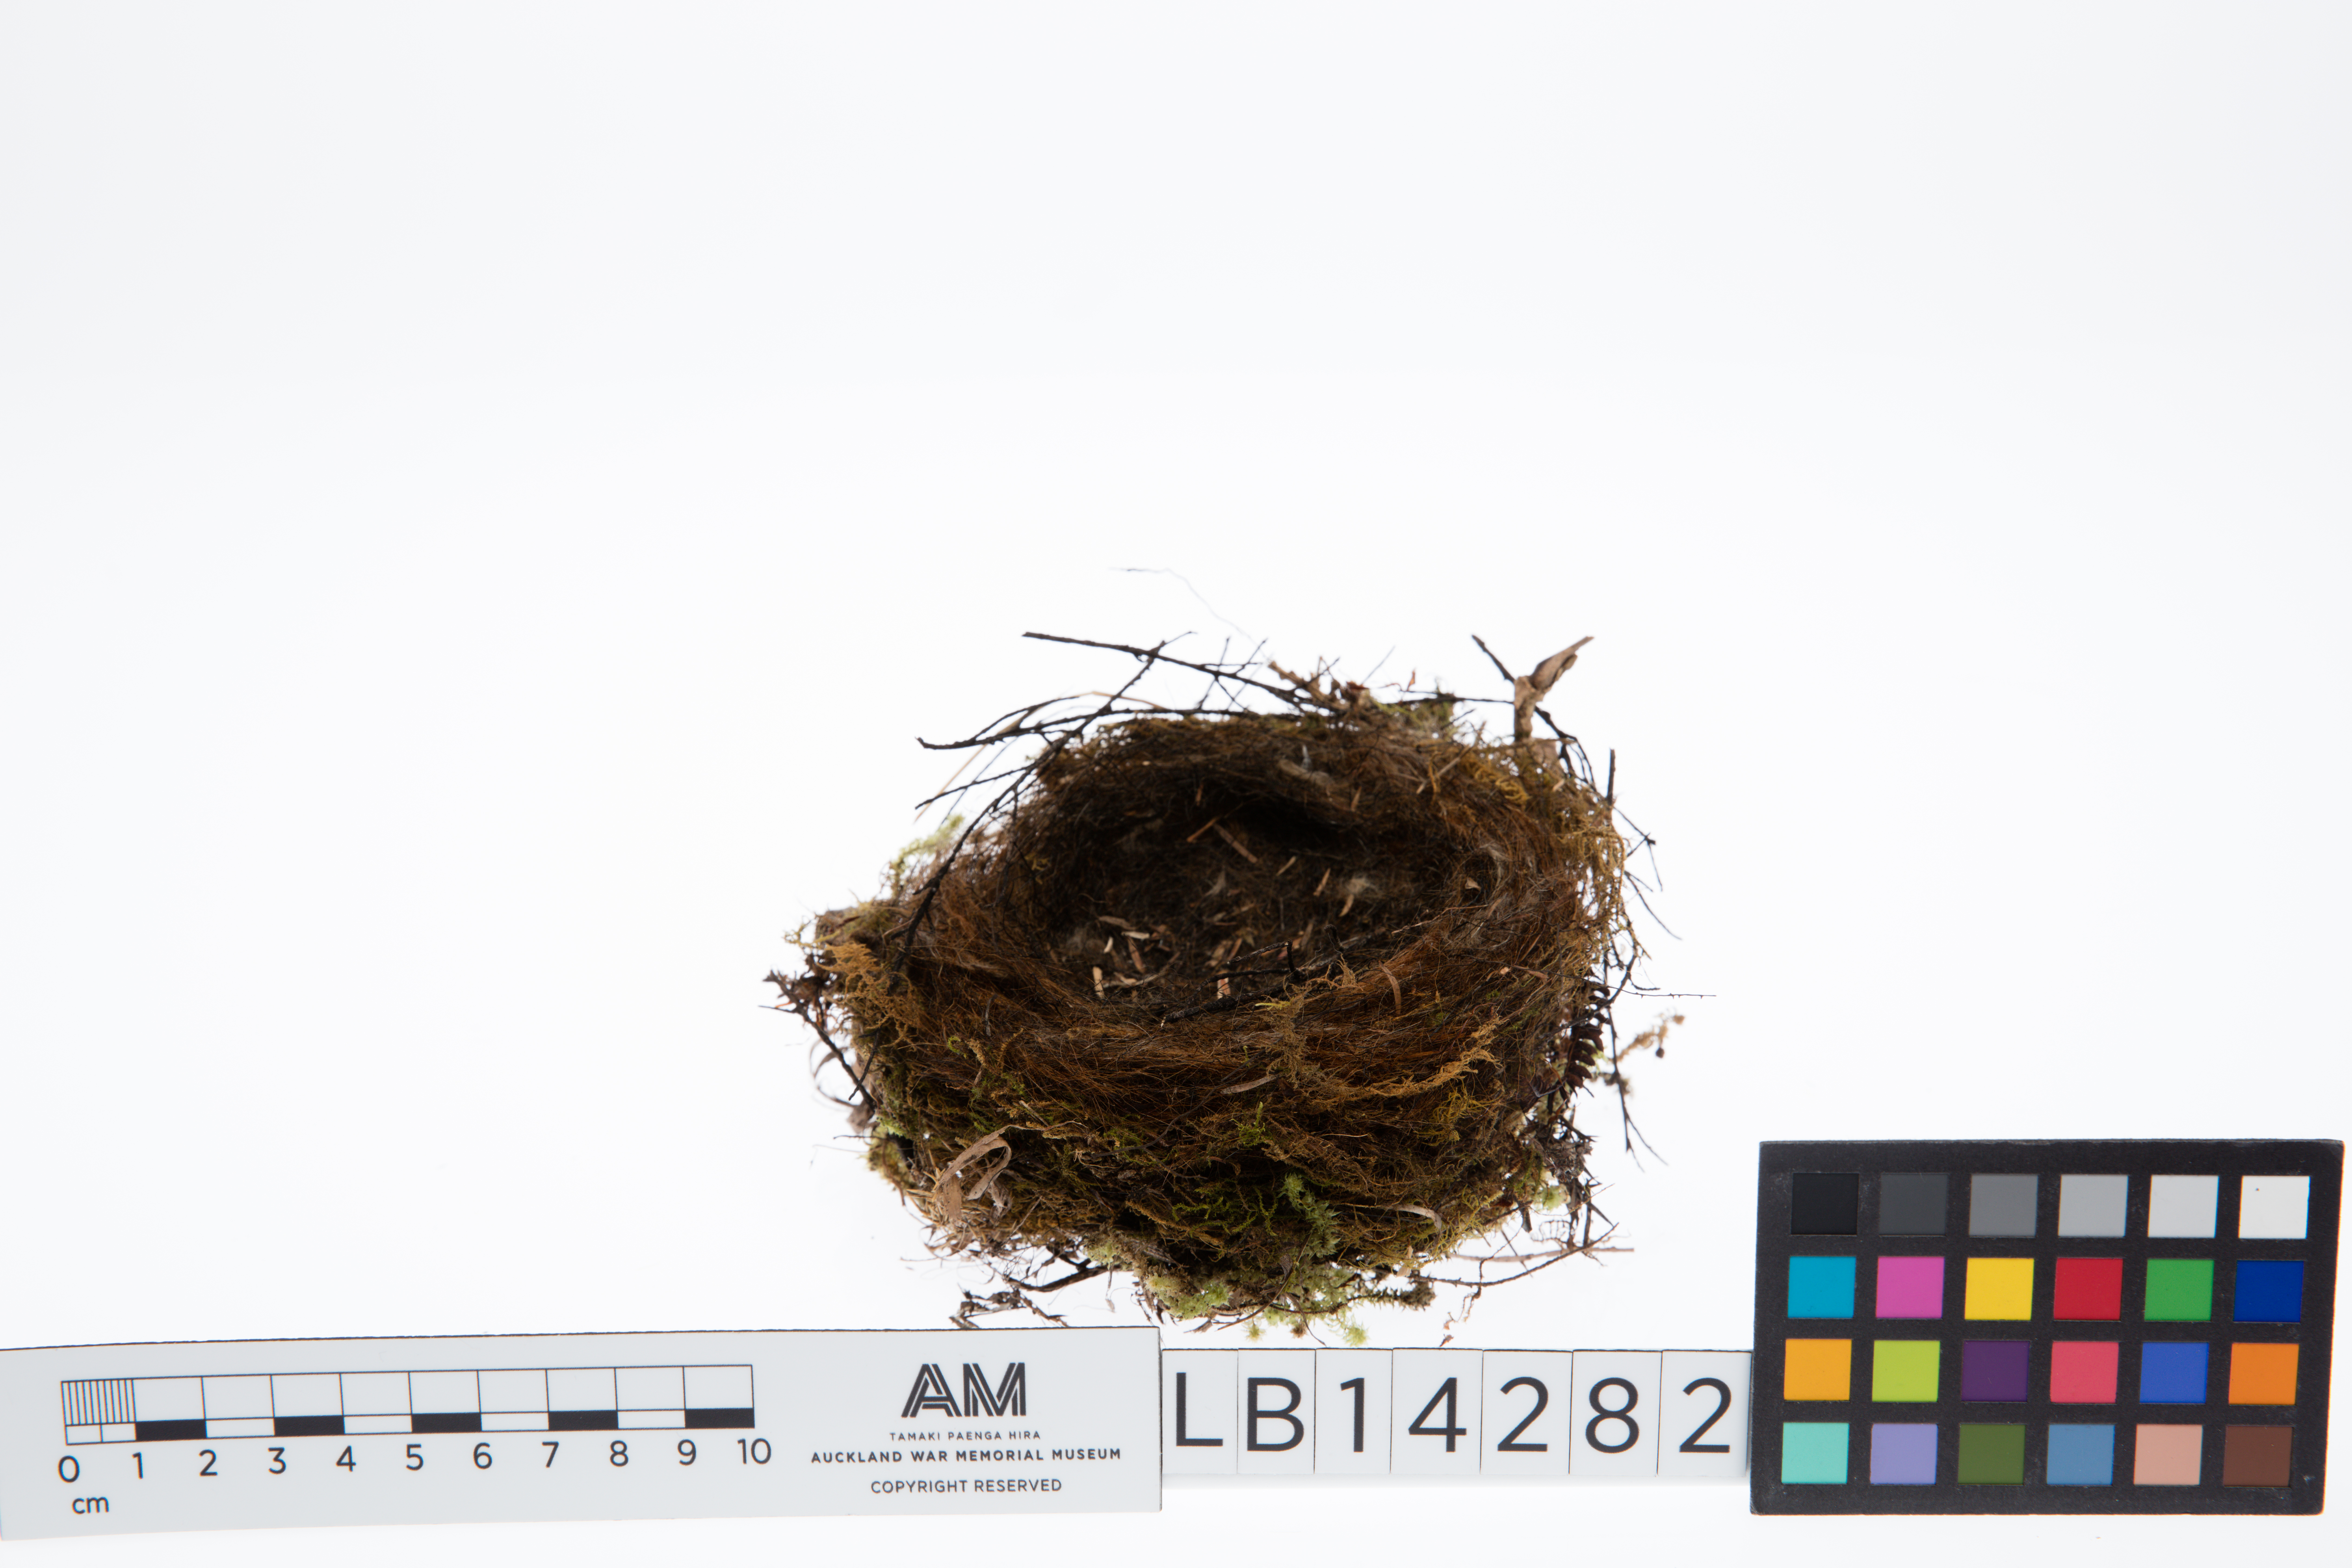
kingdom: Animalia
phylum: Chordata
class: Aves
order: Passeriformes
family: Prunellidae
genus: Prunella
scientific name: Prunella modularis
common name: Dunnock
